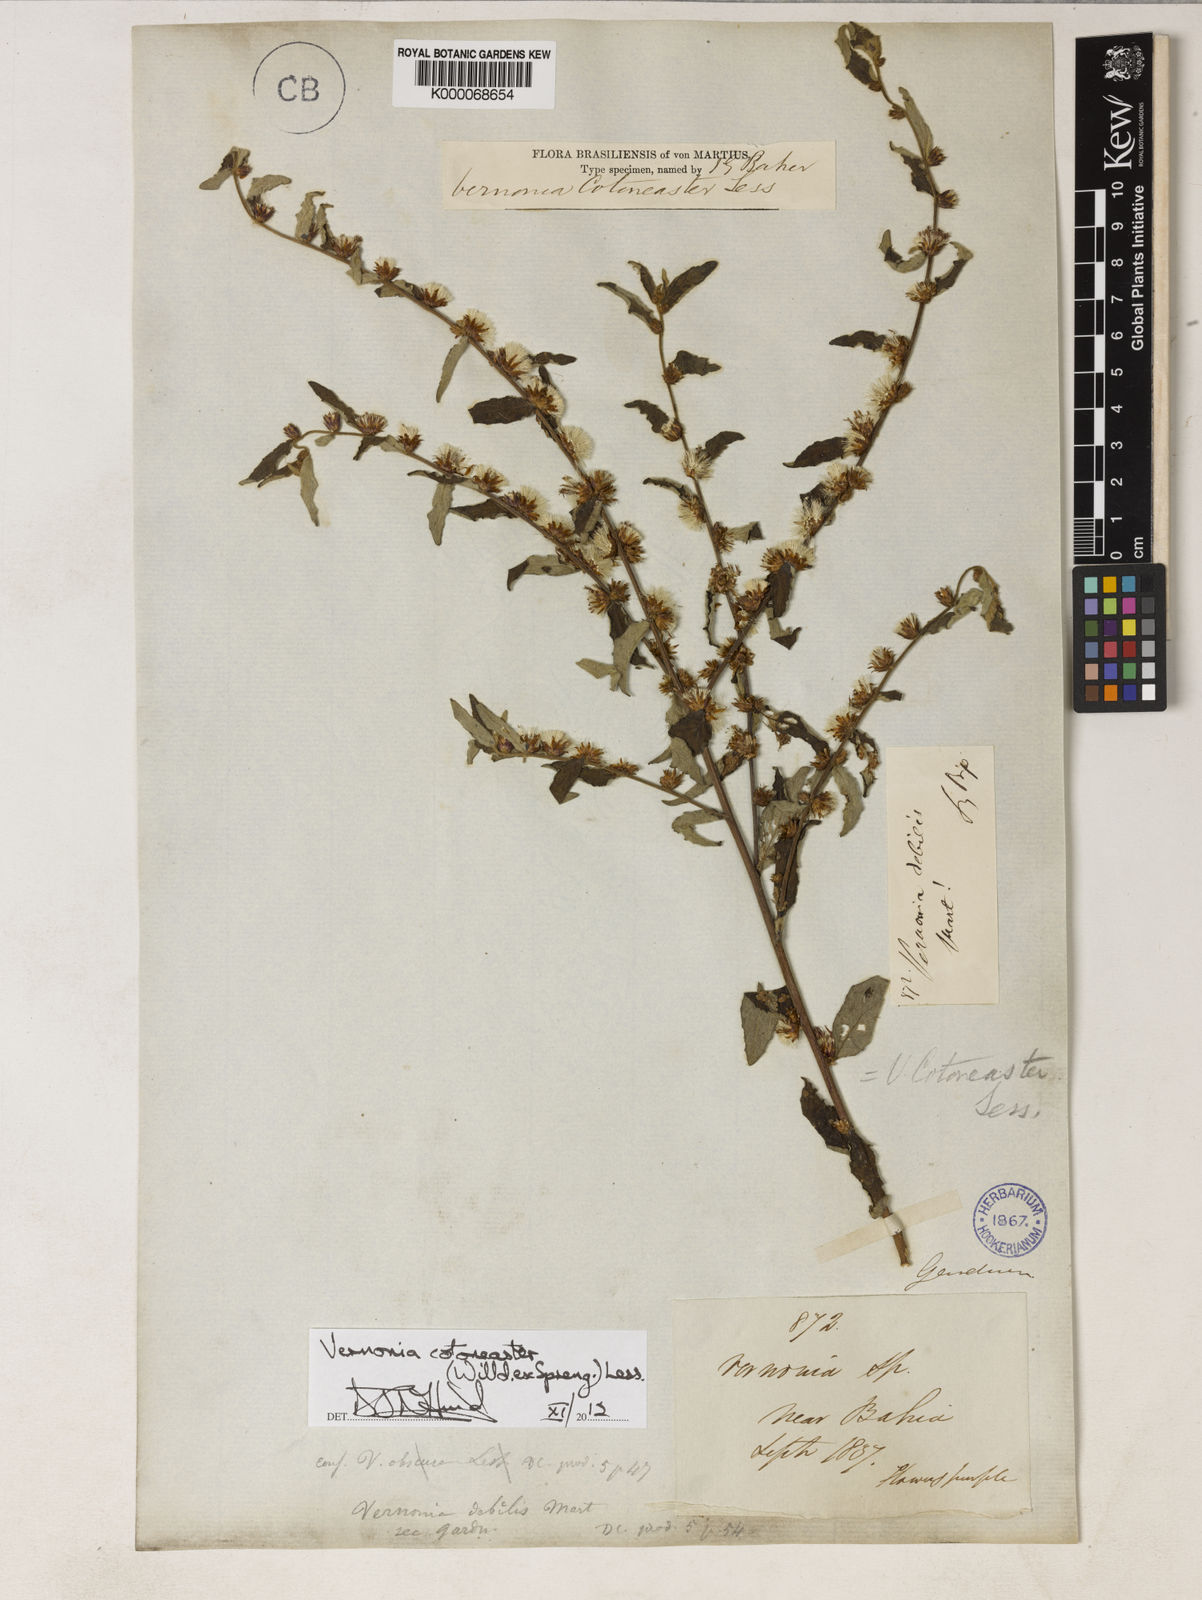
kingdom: Plantae
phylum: Tracheophyta
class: Magnoliopsida
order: Asterales
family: Asteraceae
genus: Lepidaploa
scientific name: Lepidaploa cotoneaster
